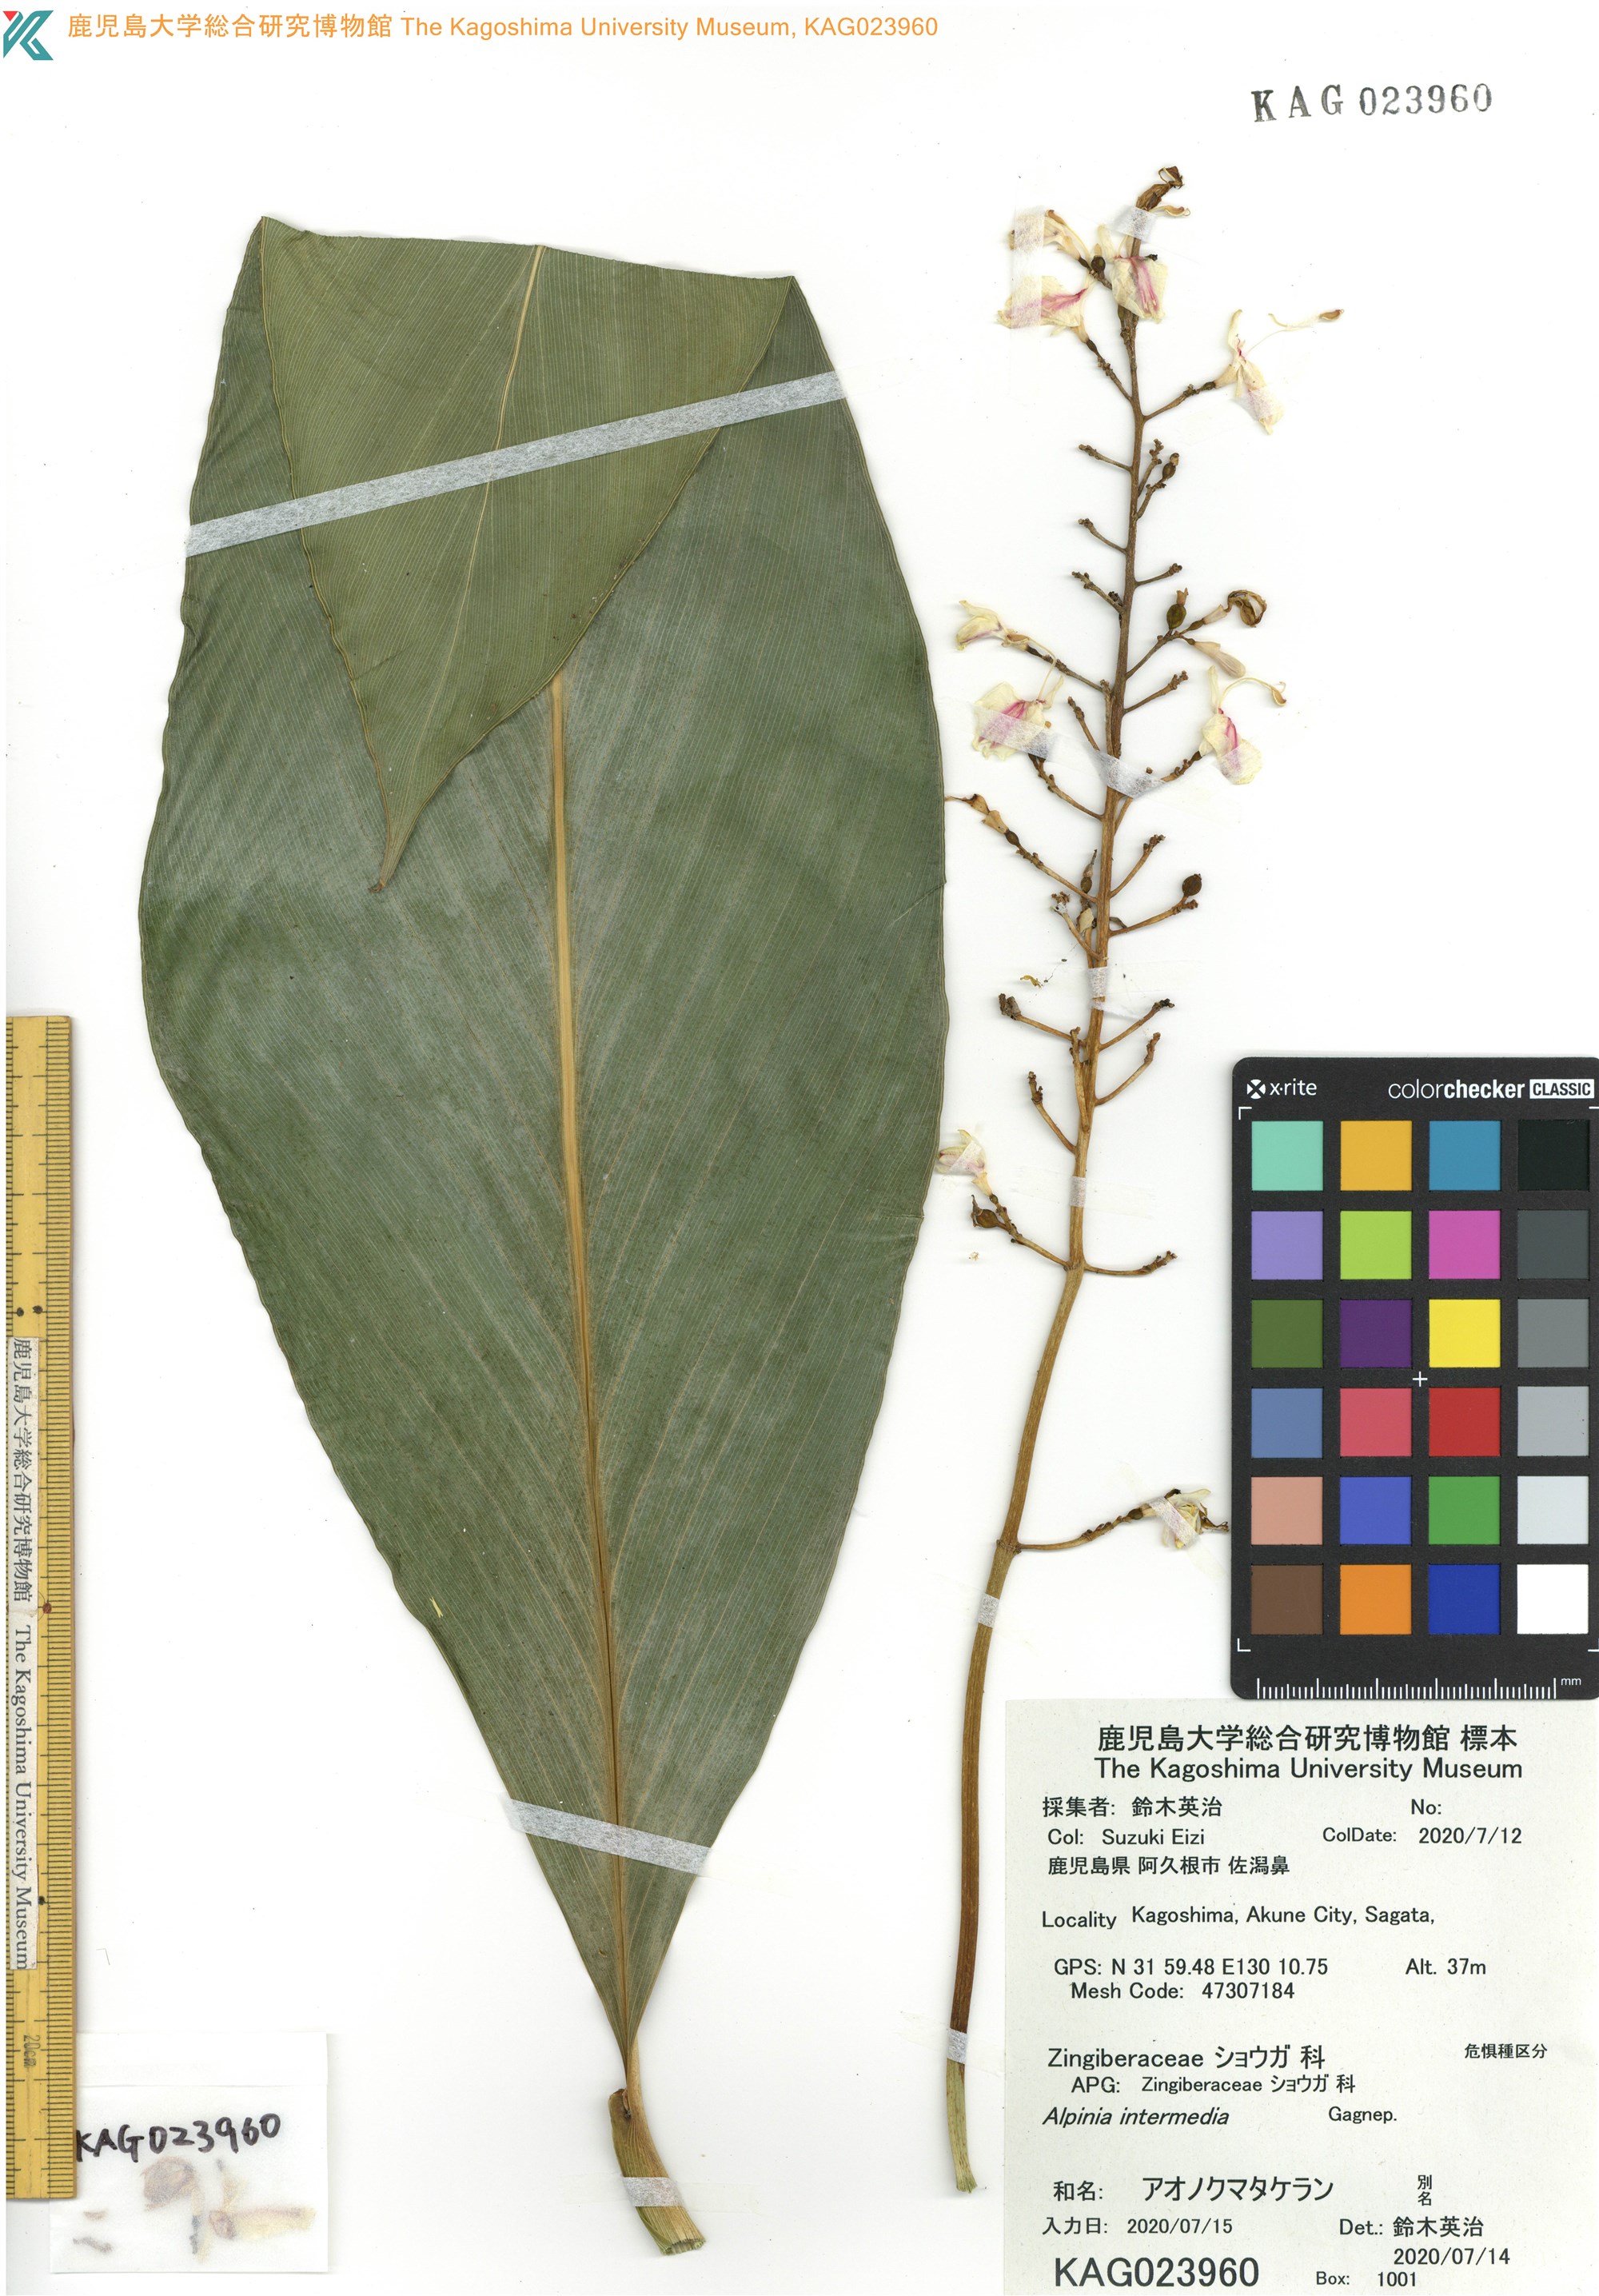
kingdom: Plantae
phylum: Tracheophyta
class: Liliopsida
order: Zingiberales
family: Zingiberaceae
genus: Alpinia
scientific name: Alpinia intermedia
